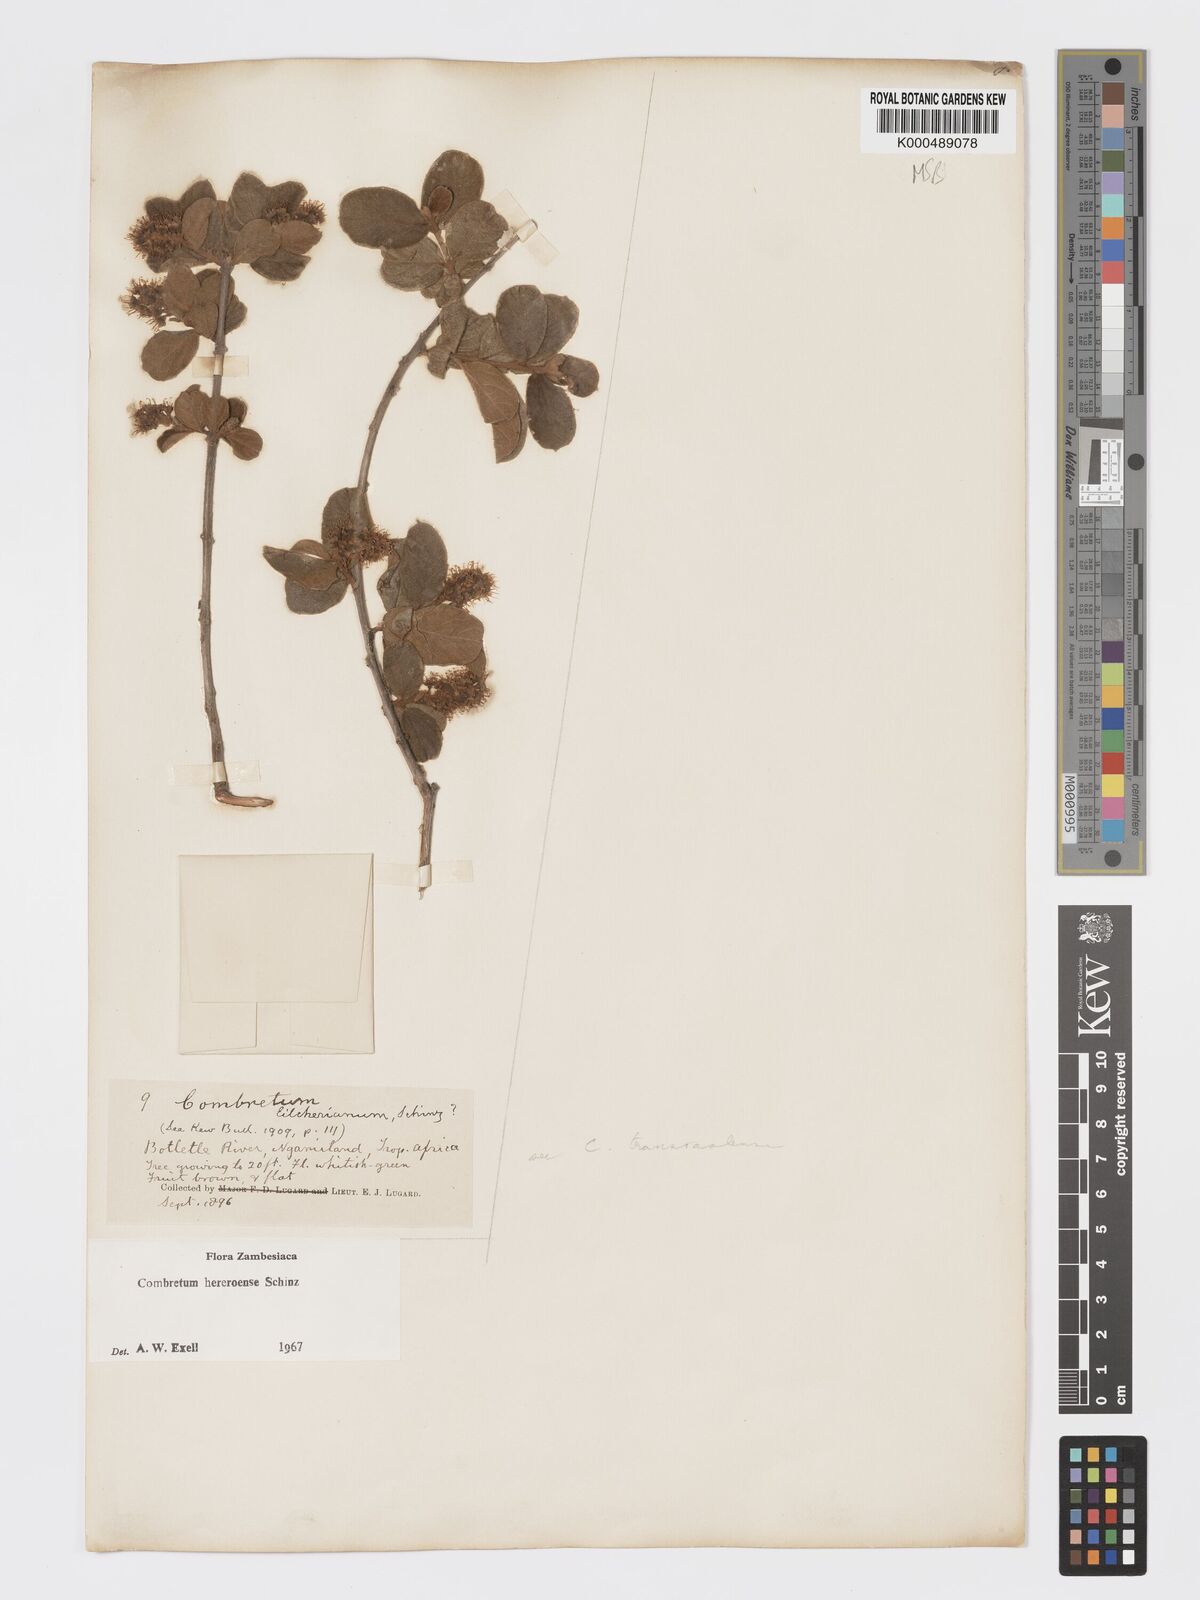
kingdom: Plantae
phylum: Tracheophyta
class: Magnoliopsida
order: Myrtales
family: Combretaceae
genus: Combretum
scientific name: Combretum hereroense
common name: Russet bushwillow
